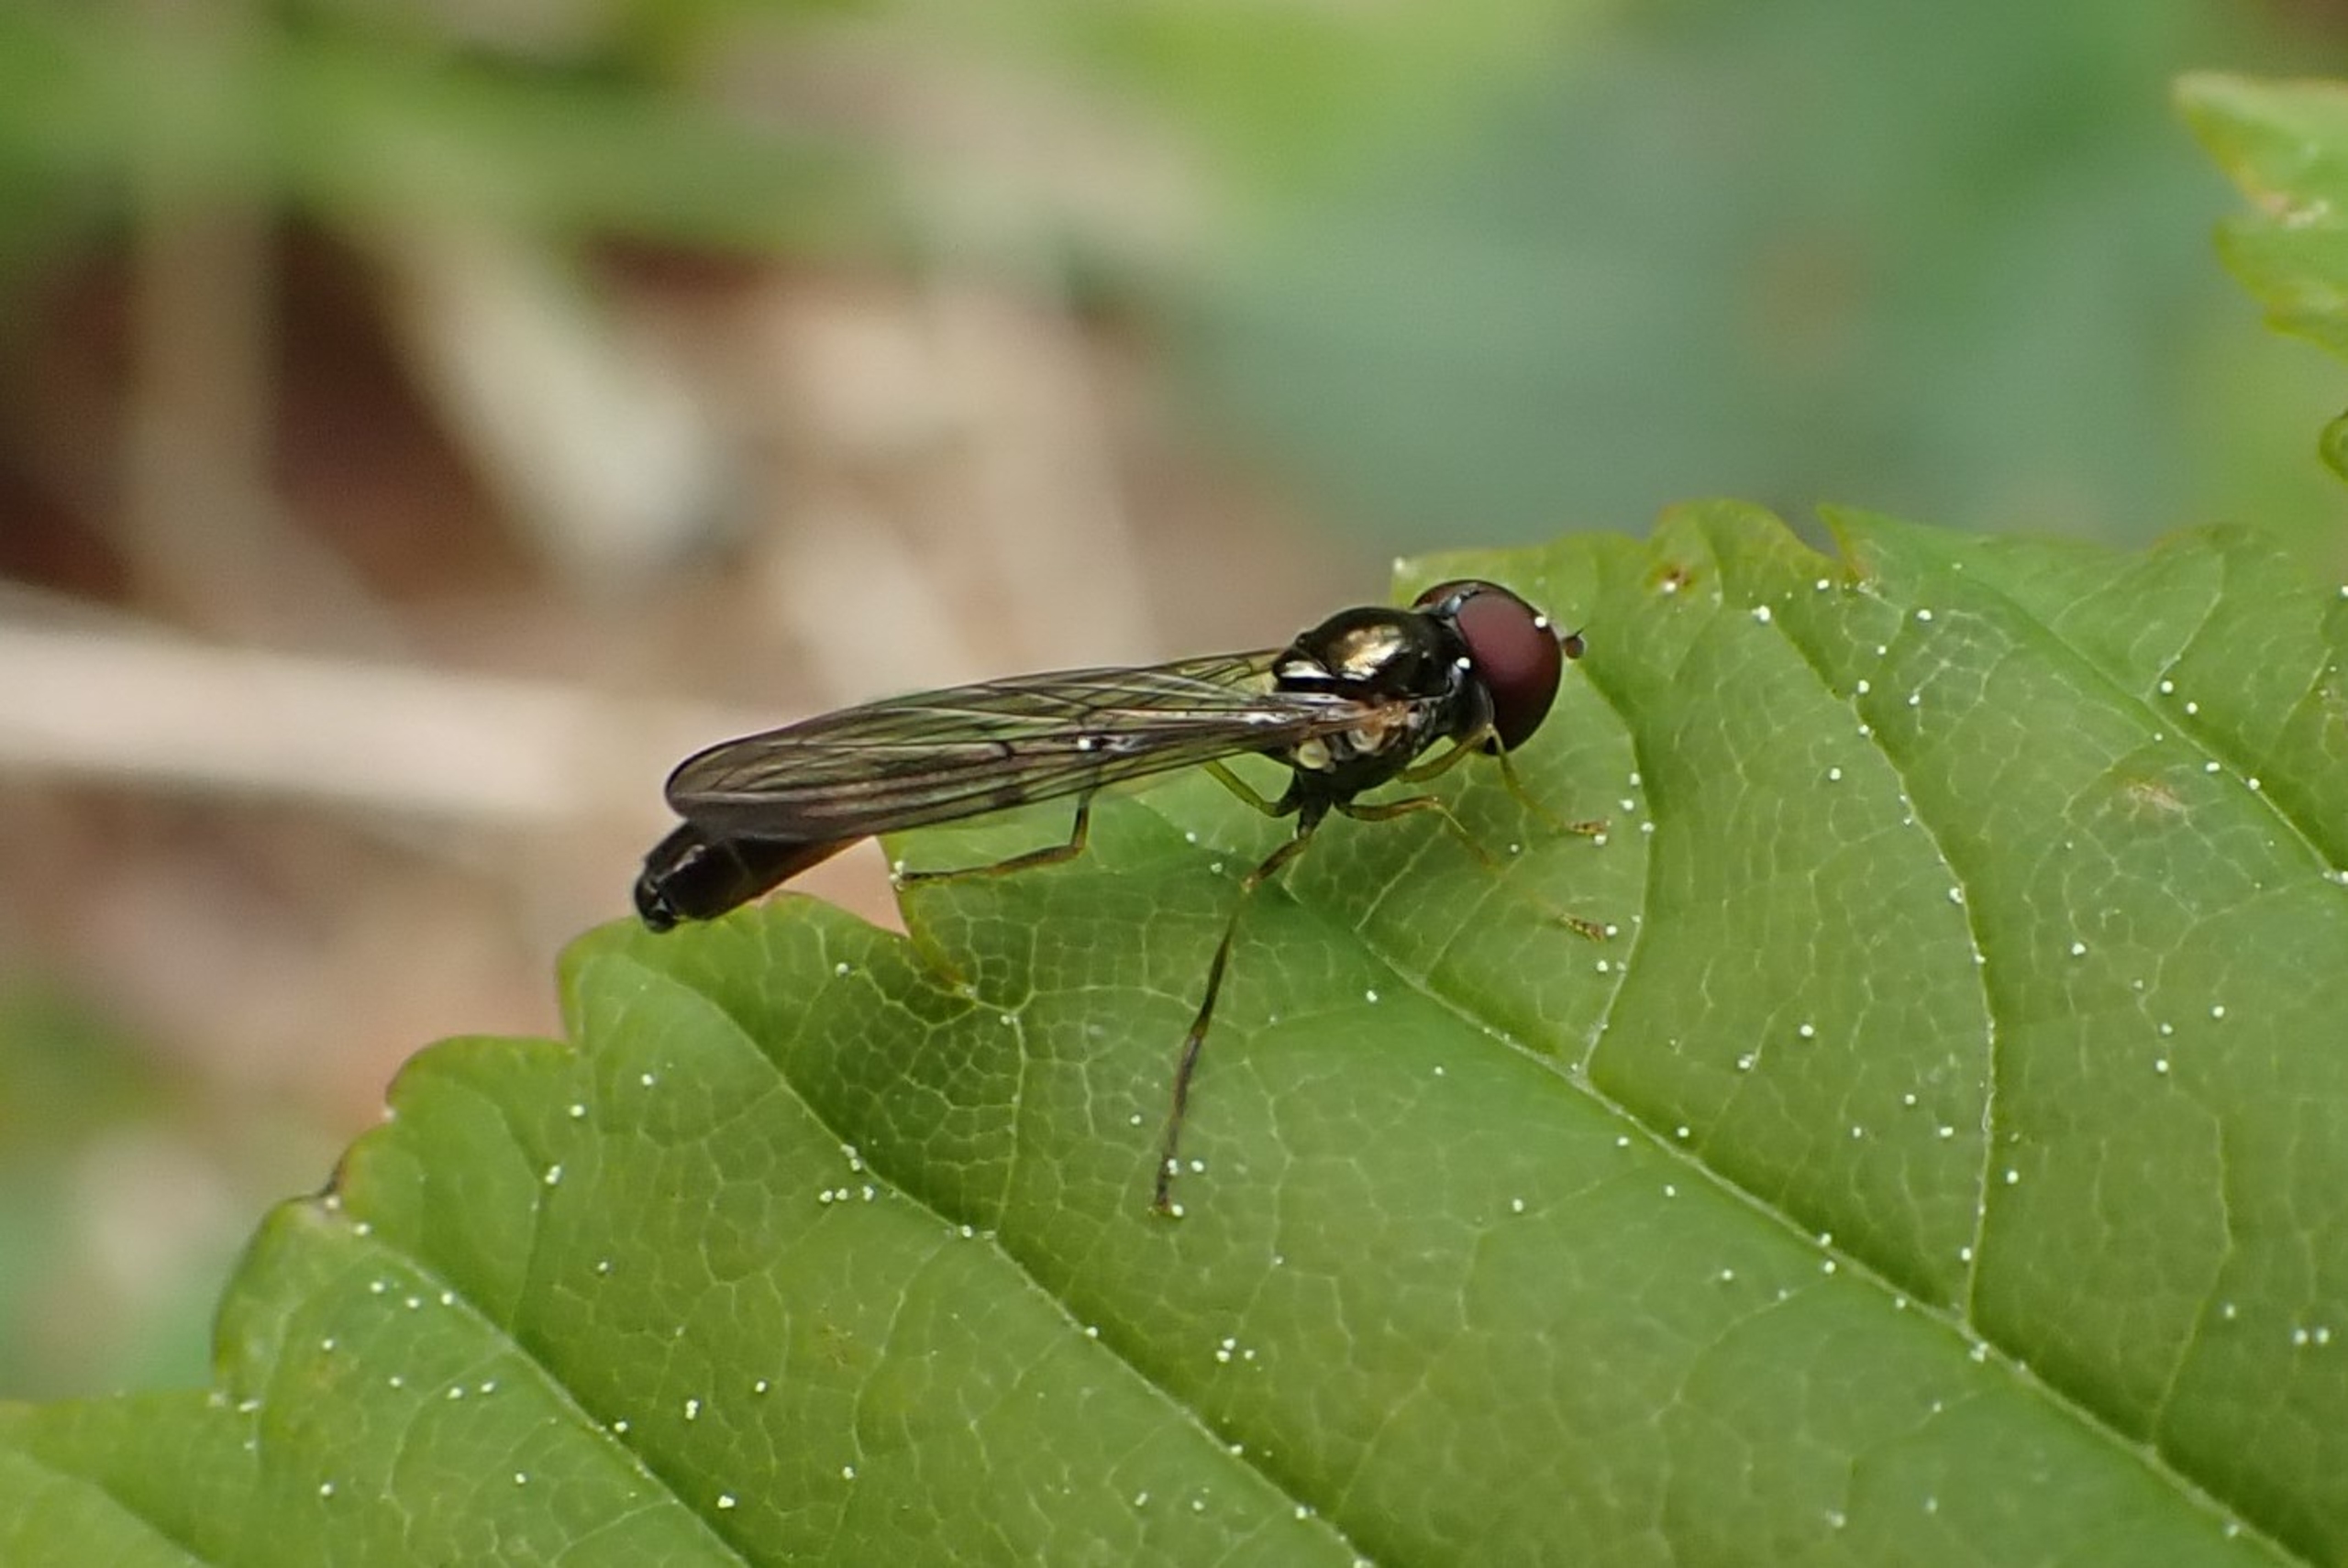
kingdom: Animalia
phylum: Arthropoda
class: Insecta
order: Diptera
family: Syrphidae
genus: Baccha
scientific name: Baccha elongata
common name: Mat spydsvirreflue
